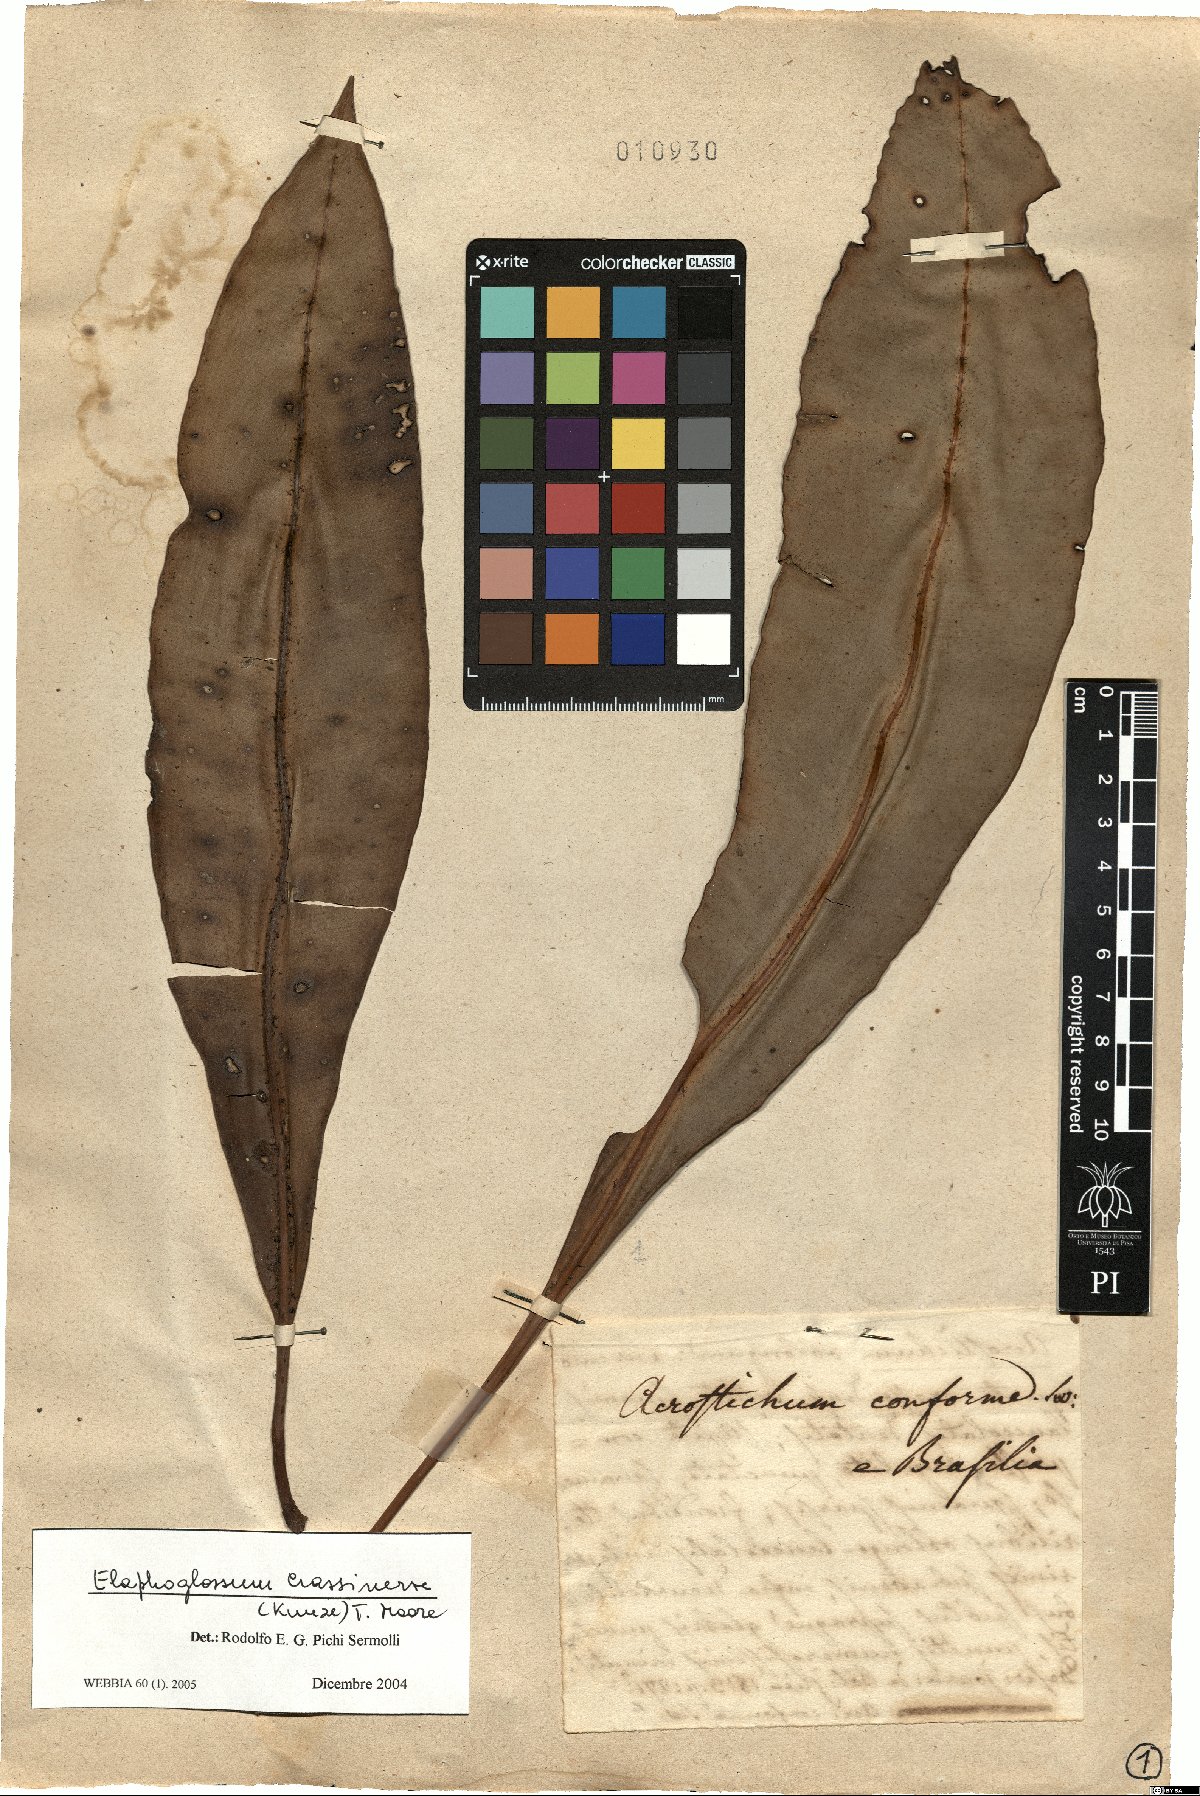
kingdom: Plantae
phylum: Tracheophyta
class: Polypodiopsida
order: Polypodiales
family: Dryopteridaceae
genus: Elaphoglossum
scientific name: Elaphoglossum crassinerve
